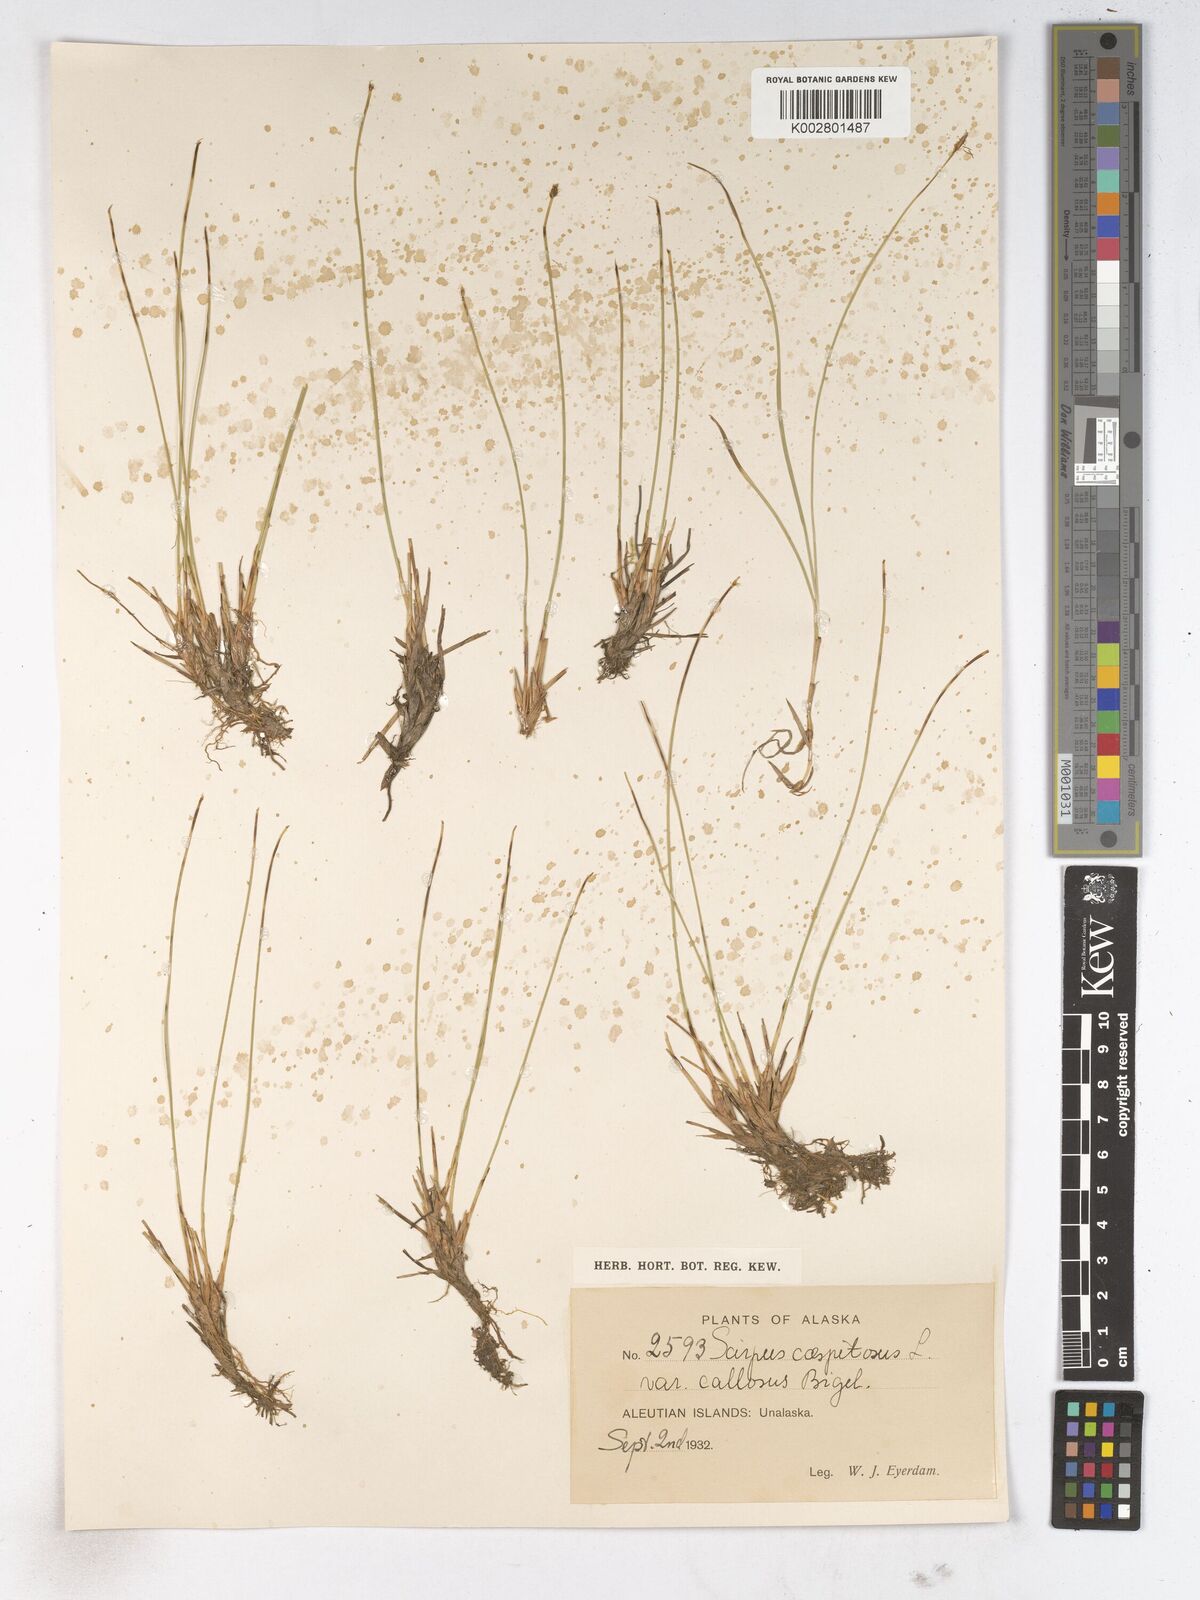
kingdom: Plantae
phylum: Tracheophyta
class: Liliopsida
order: Poales
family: Cyperaceae
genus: Trichophorum
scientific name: Trichophorum cespitosum
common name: Cespitose bulrush
